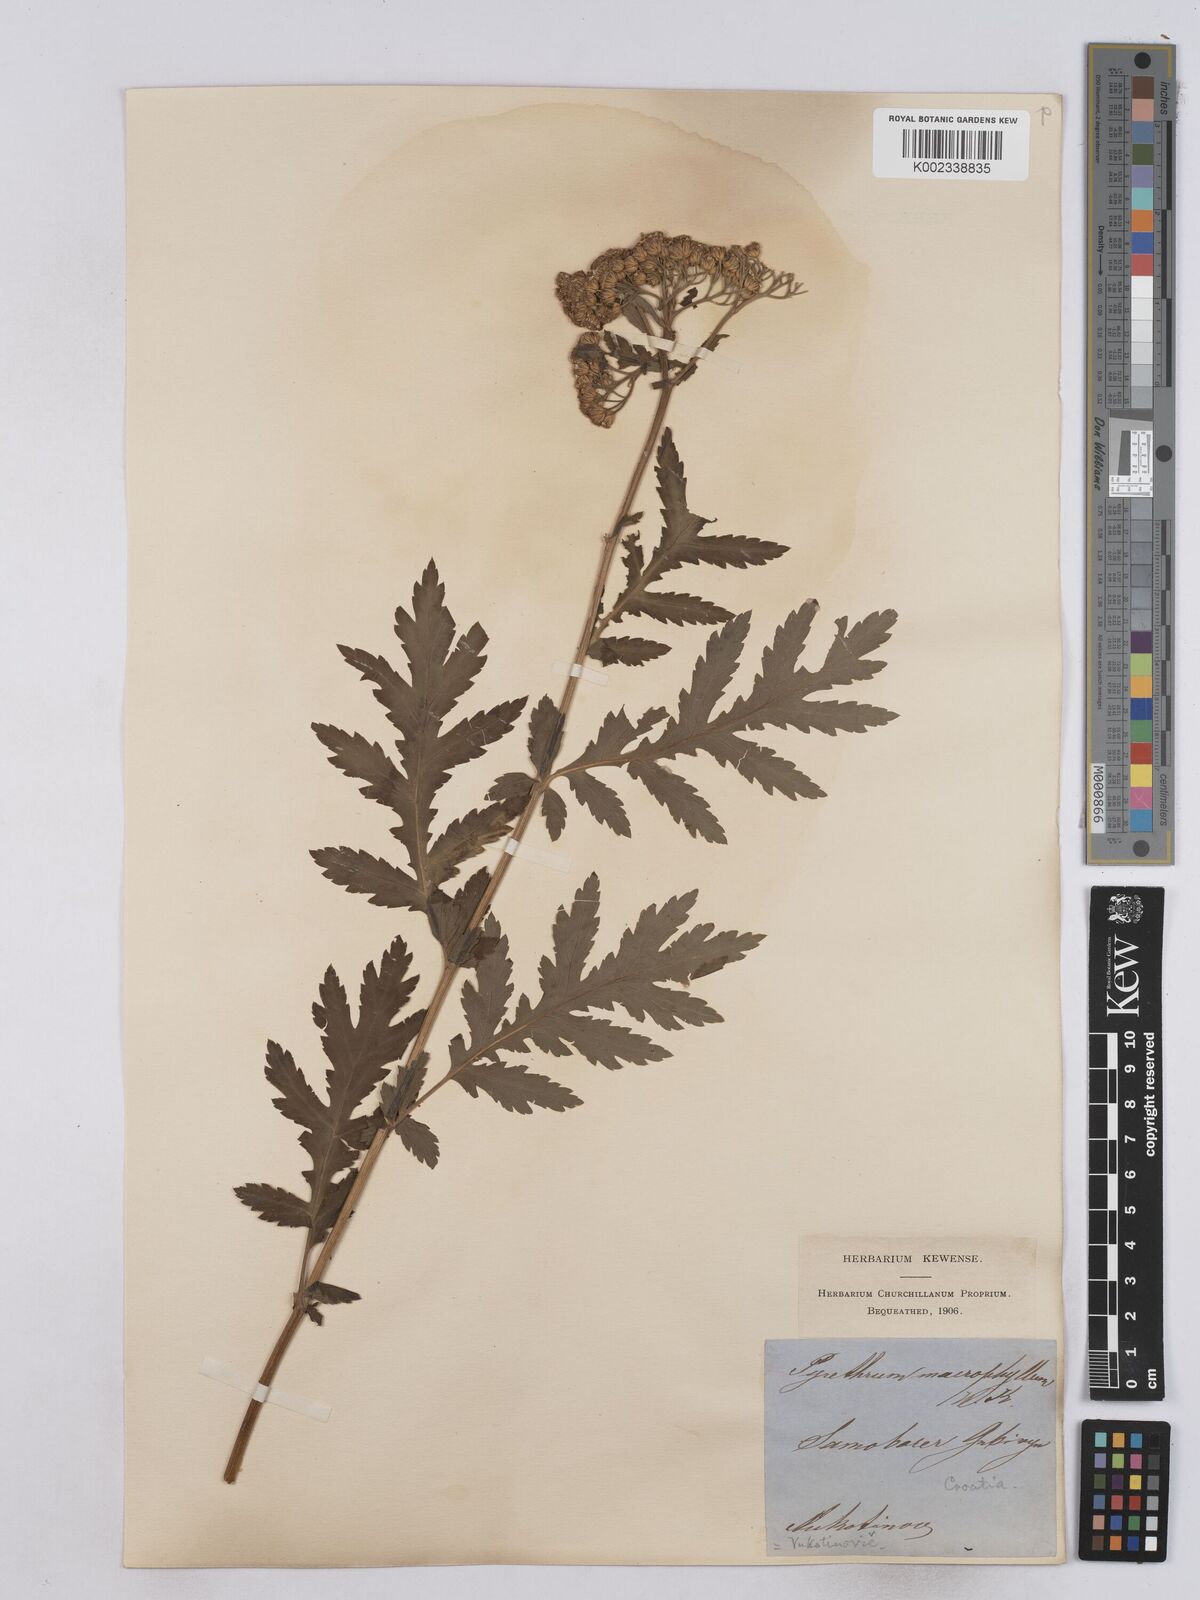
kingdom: Plantae
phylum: Tracheophyta
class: Magnoliopsida
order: Asterales
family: Asteraceae
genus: Tanacetum
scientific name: Tanacetum macrophyllum
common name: Rayed tansy
